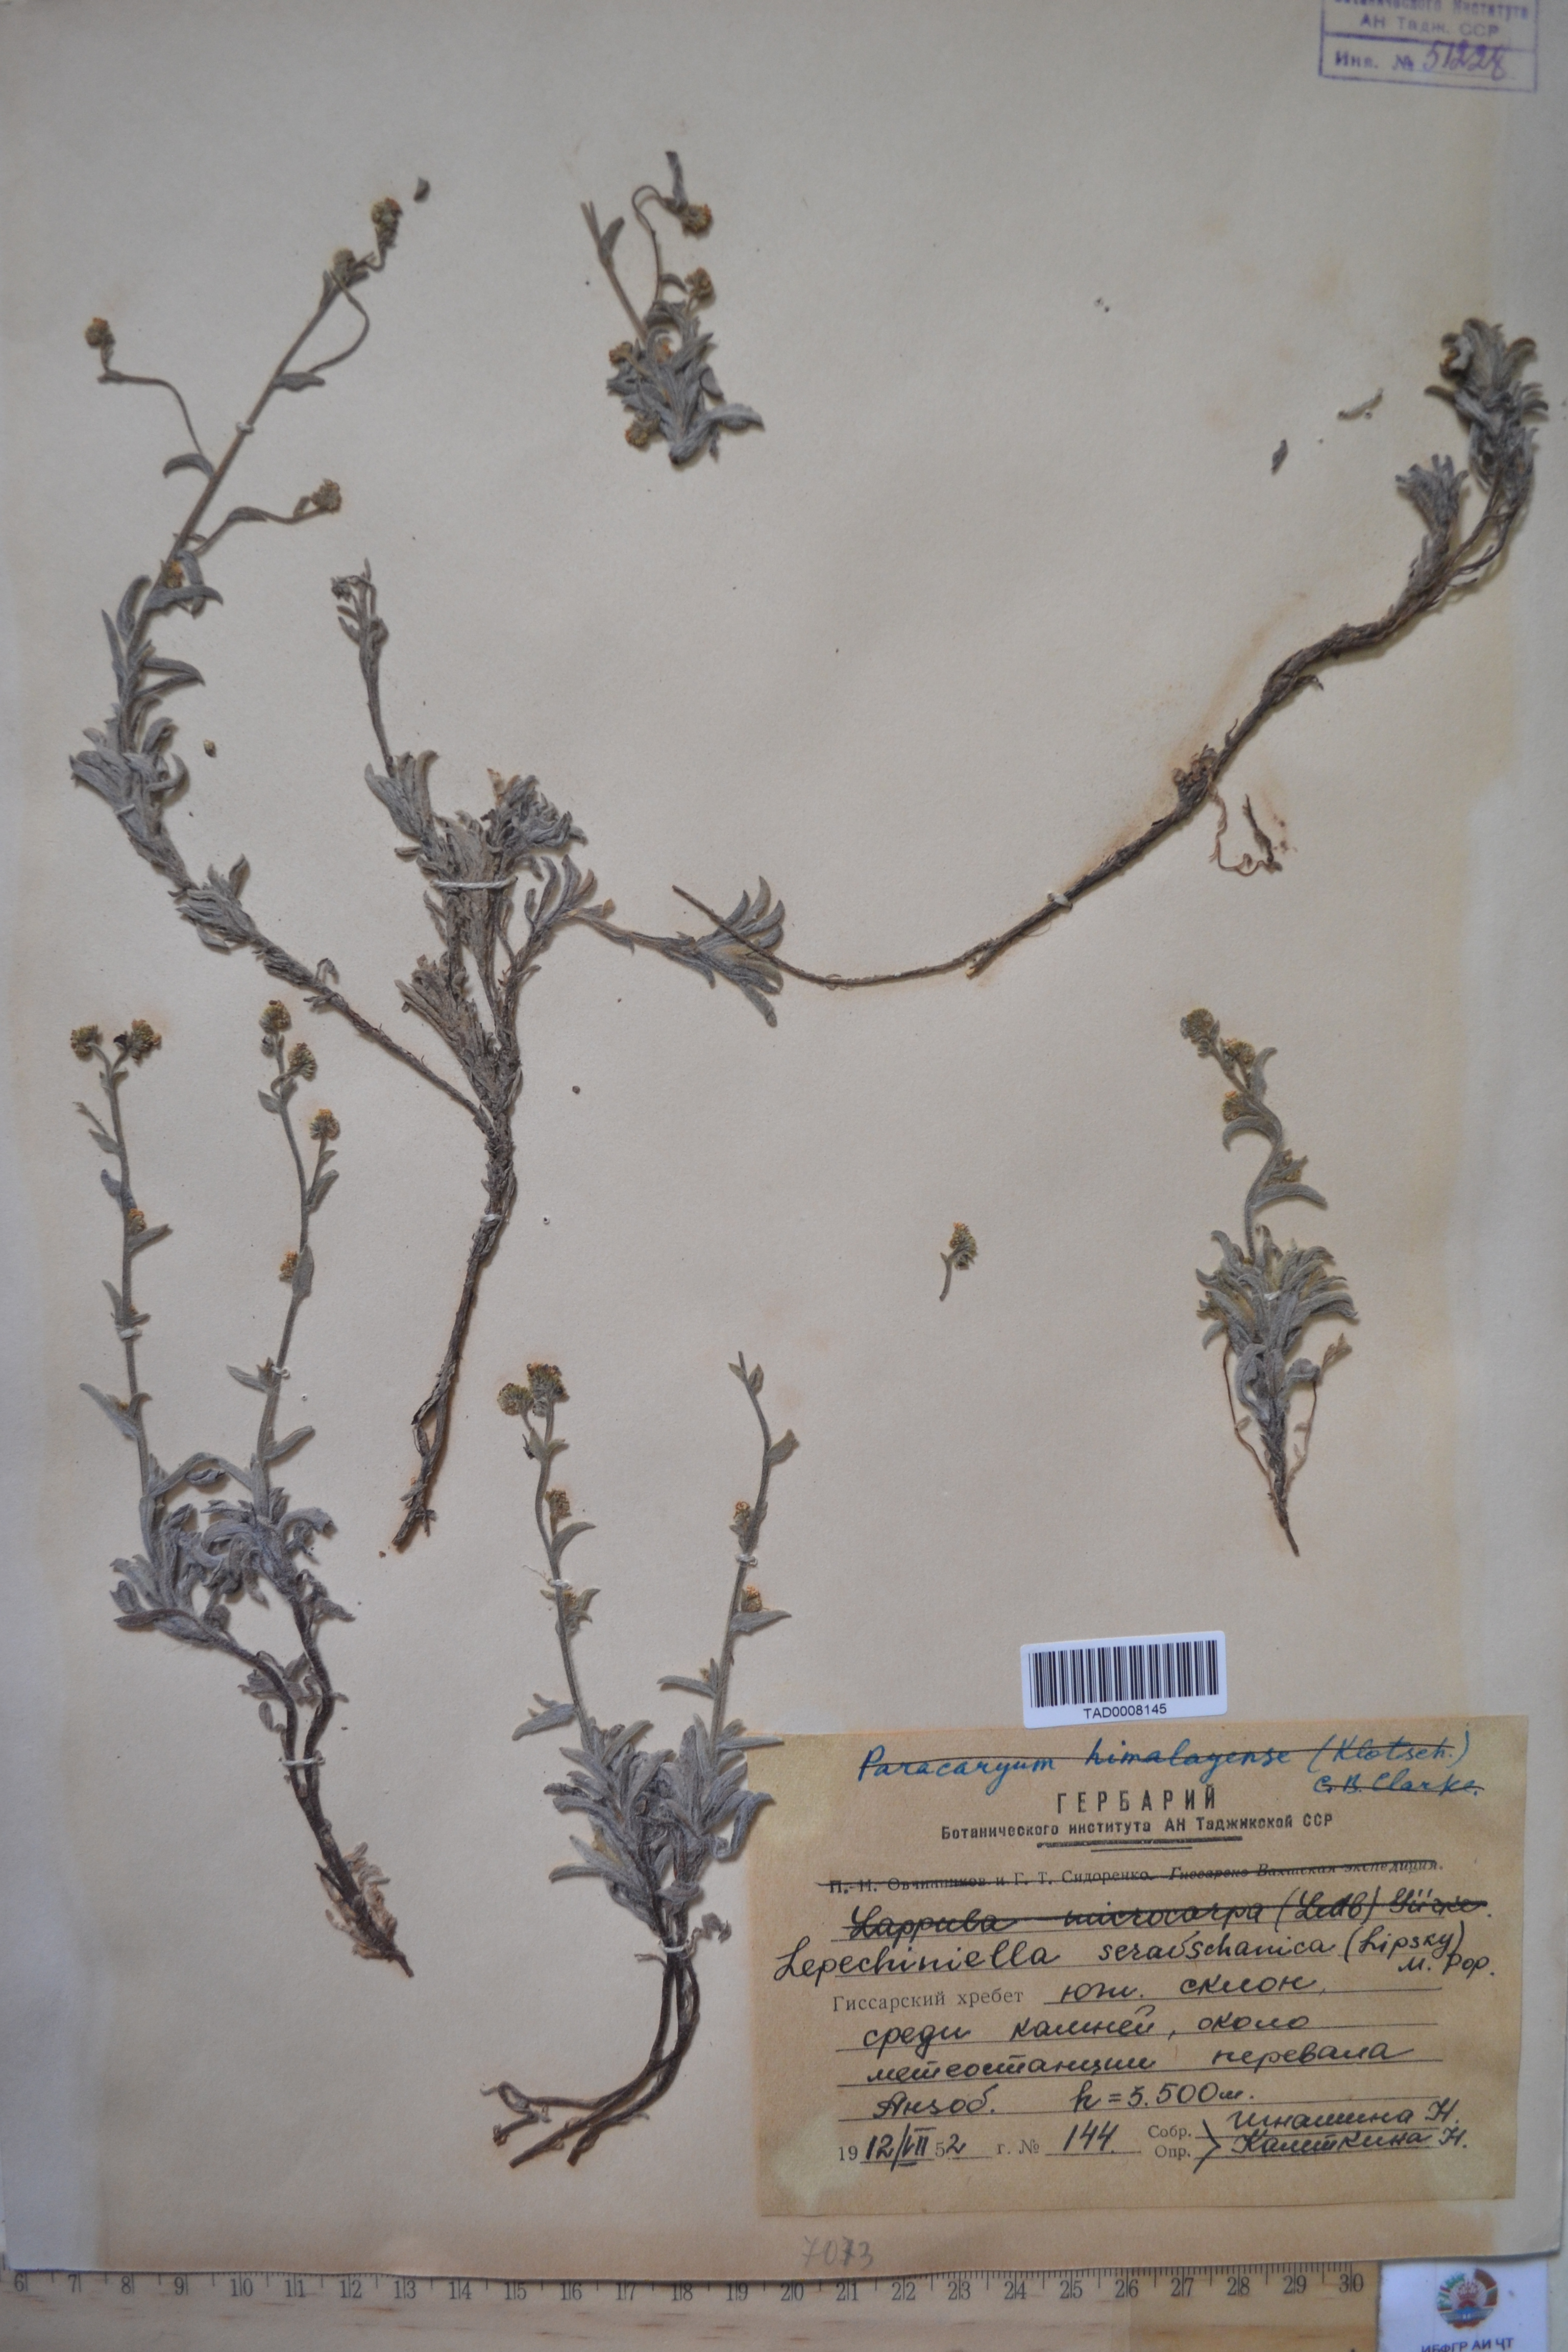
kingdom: Plantae
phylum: Tracheophyta
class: Magnoliopsida
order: Boraginales
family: Boraginaceae
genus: Lepechiniella
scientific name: Lepechiniella seravschanica
